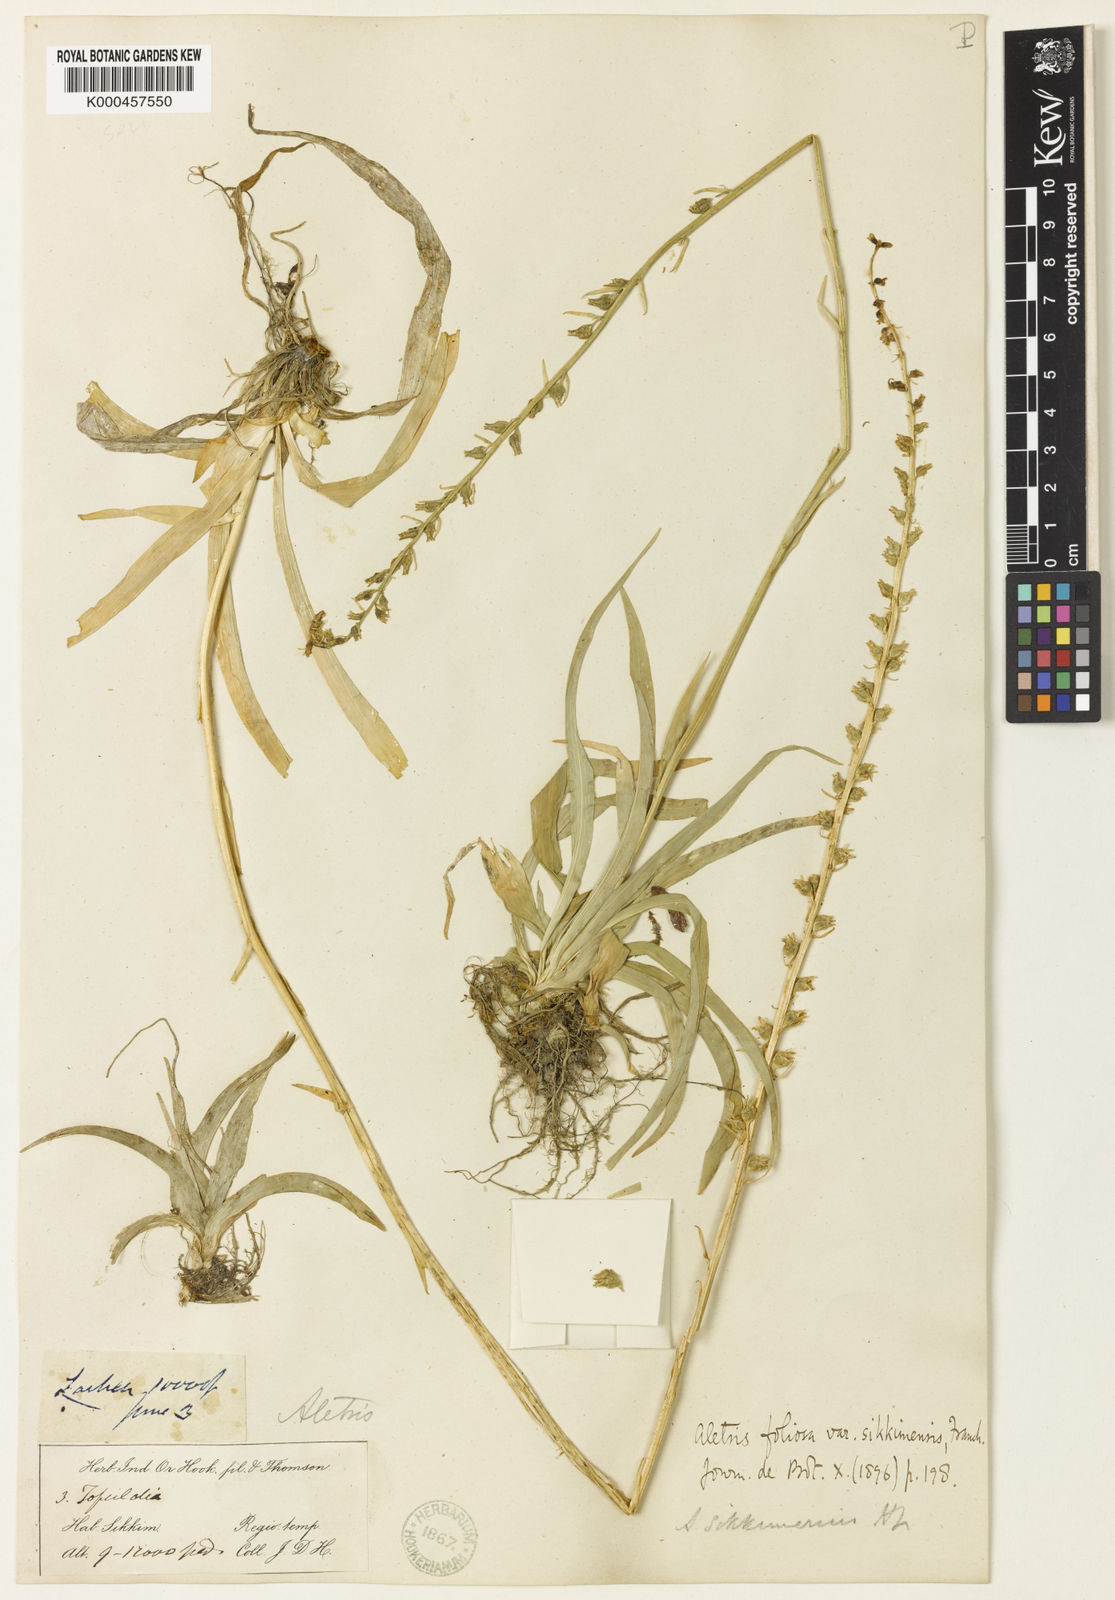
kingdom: Plantae
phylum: Tracheophyta
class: Liliopsida
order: Dioscoreales
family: Nartheciaceae
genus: Aletris
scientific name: Aletris glabra
